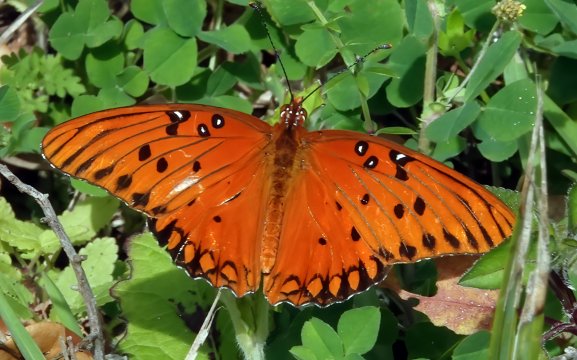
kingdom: Animalia
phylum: Arthropoda
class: Insecta
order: Lepidoptera
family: Nymphalidae
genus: Dione
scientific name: Dione vanillae
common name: Gulf Fritillary
